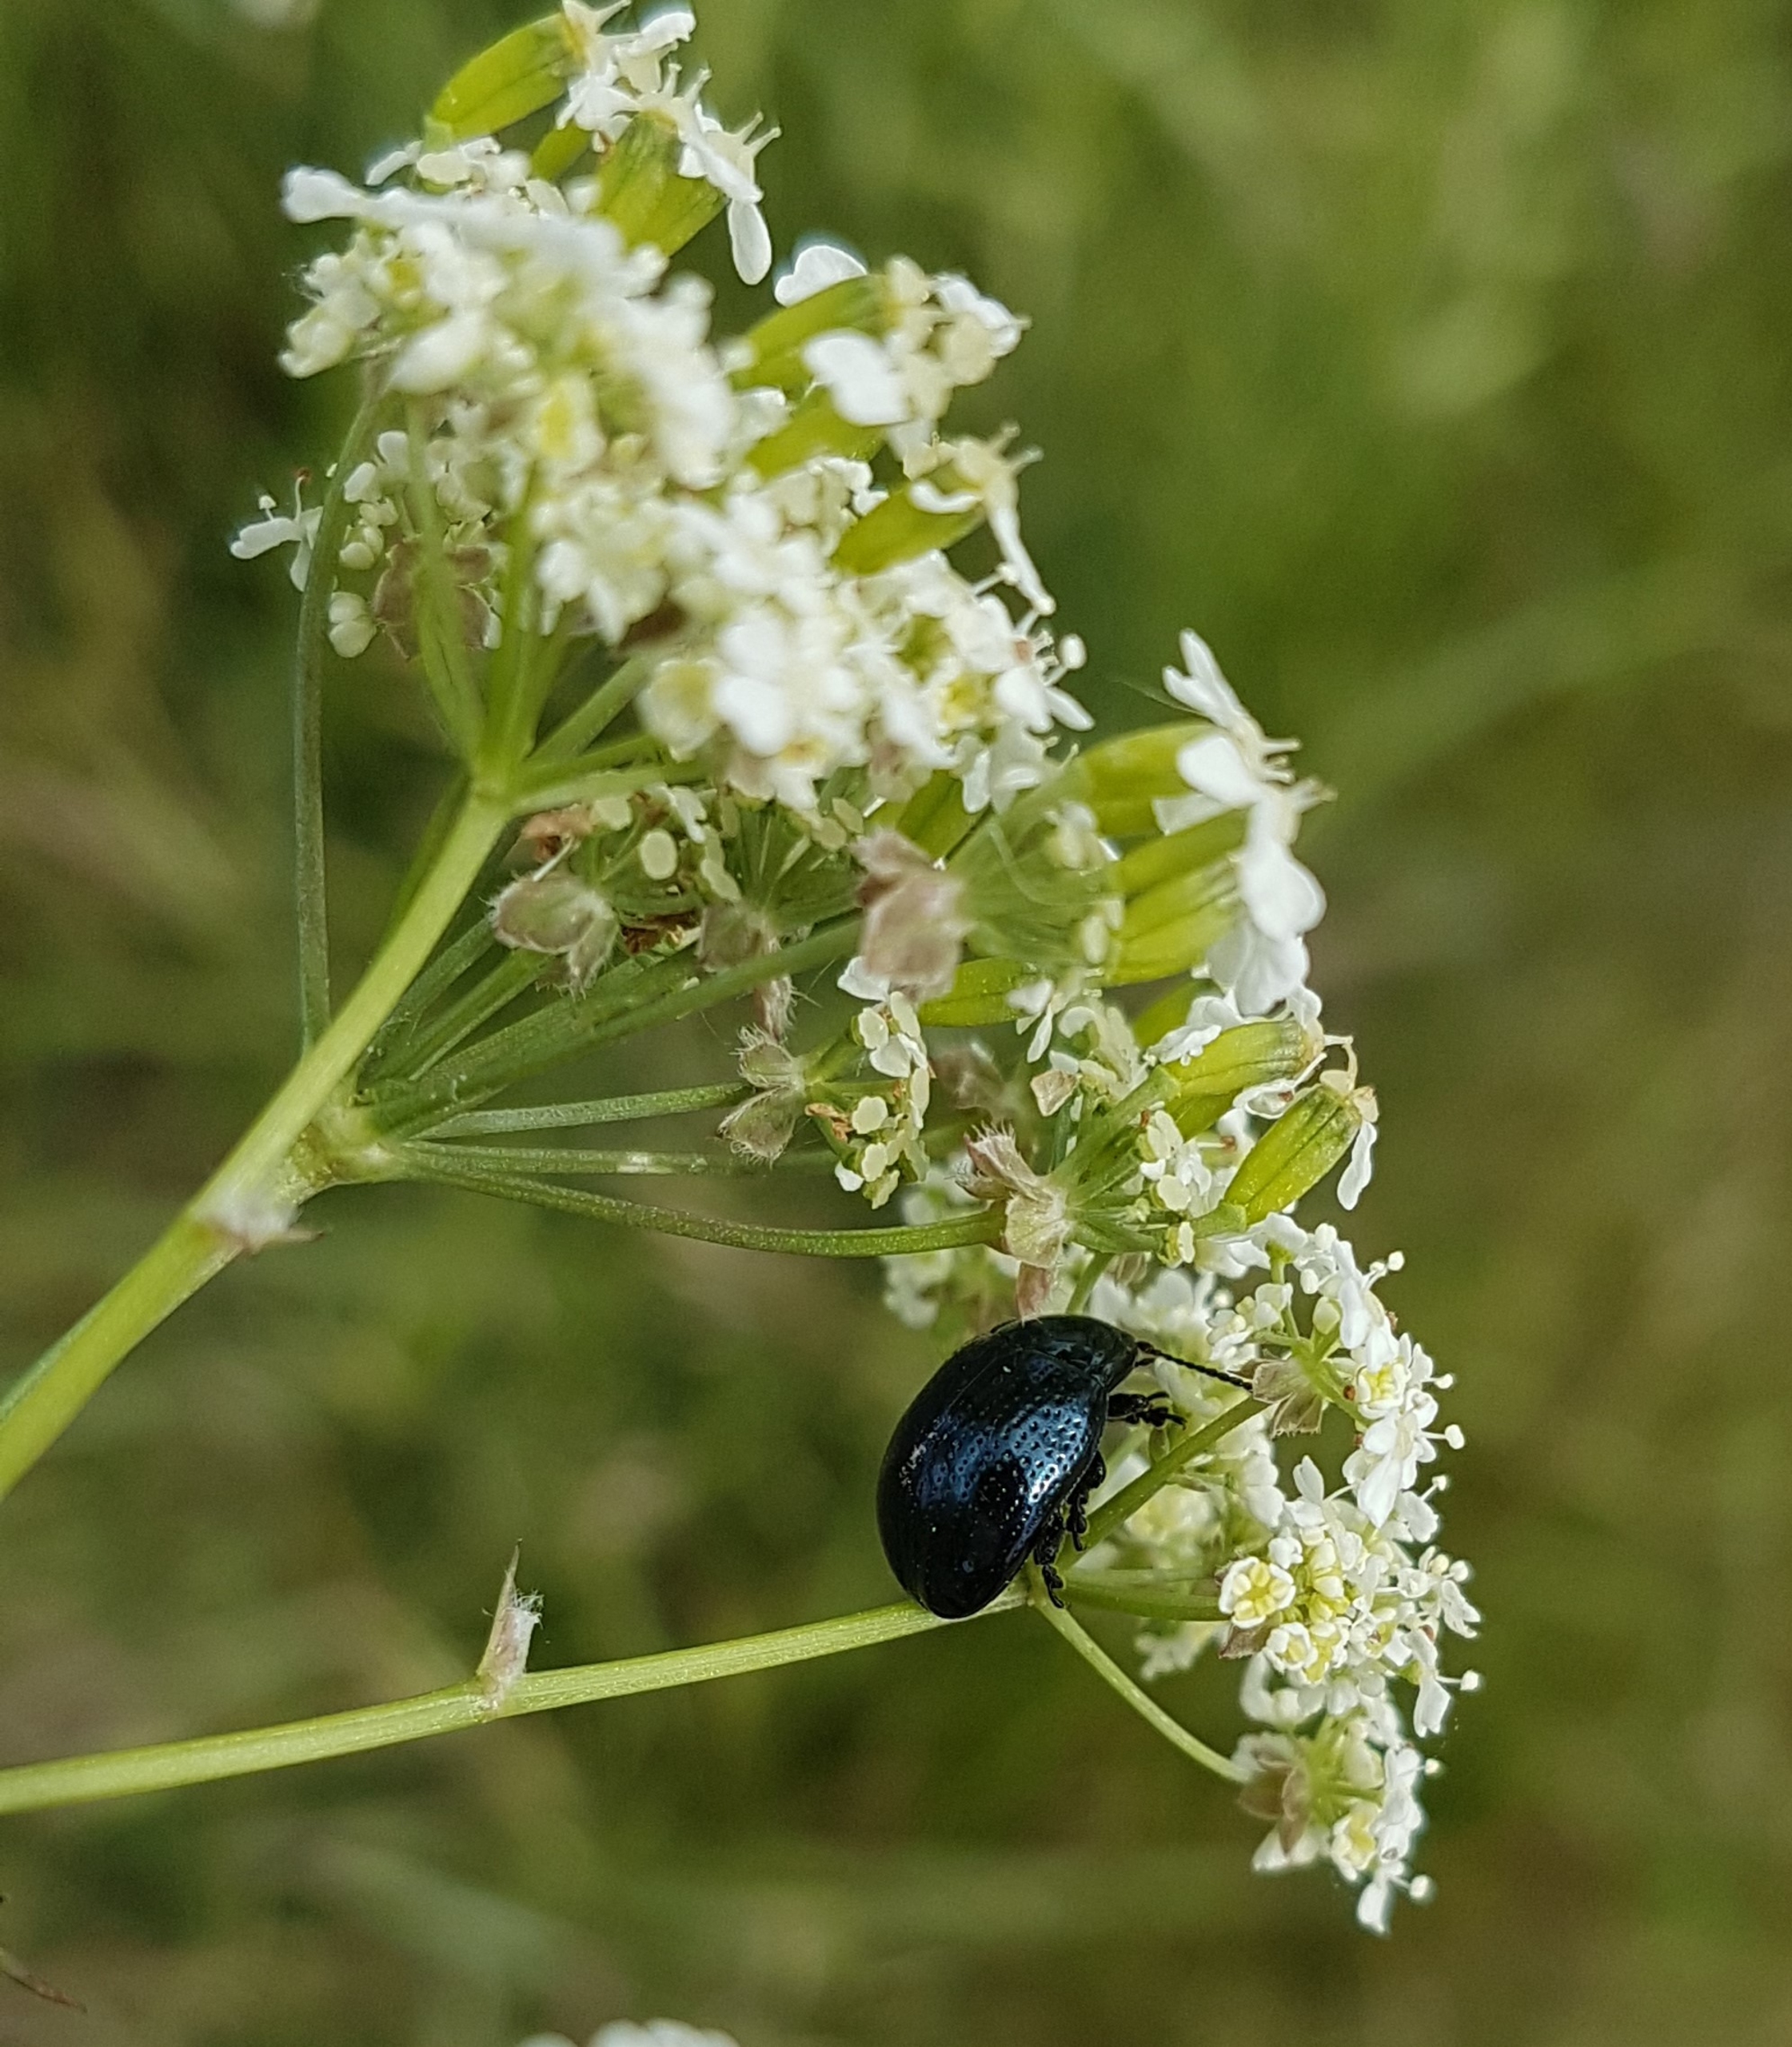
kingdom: Animalia
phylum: Arthropoda
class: Insecta
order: Coleoptera
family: Chrysomelidae
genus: Chrysolina
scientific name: Chrysolina oricalcia
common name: Rækkepunkteret guldbille
